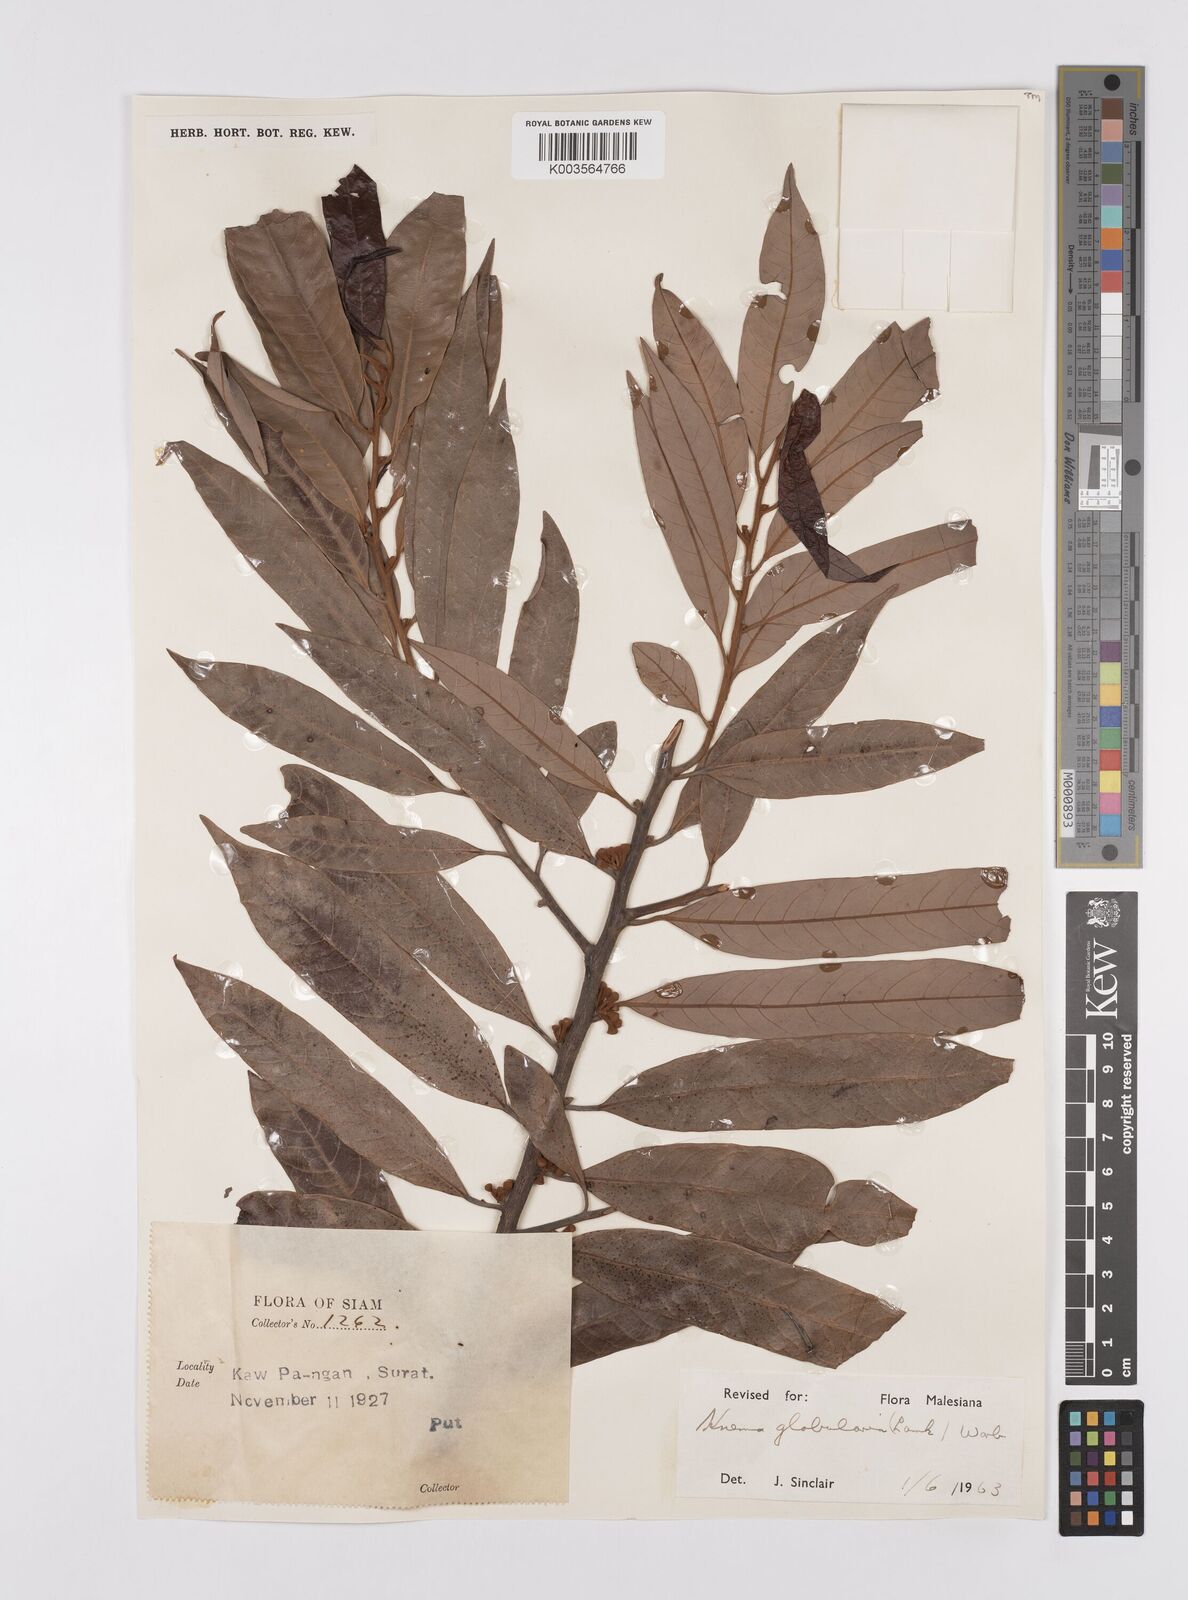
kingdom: Plantae
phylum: Tracheophyta
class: Magnoliopsida
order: Magnoliales
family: Myristicaceae
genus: Knema
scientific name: Knema globularia
